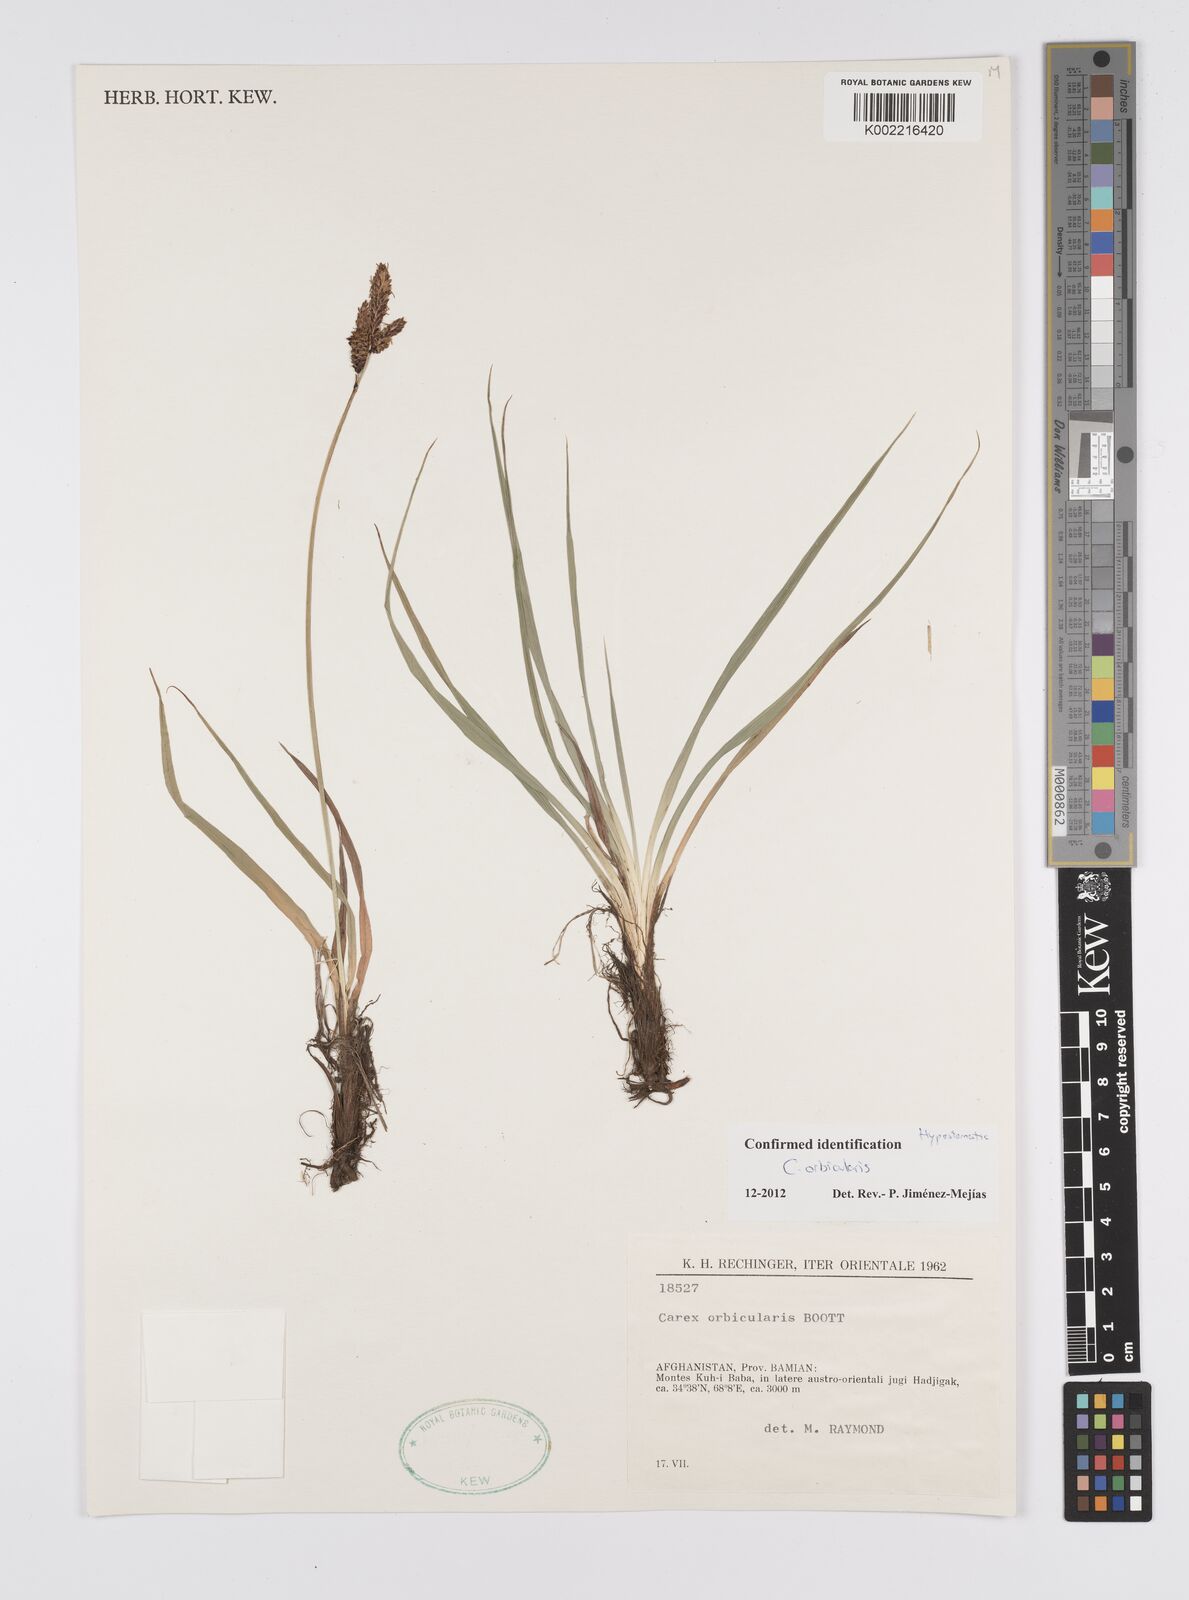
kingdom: Plantae
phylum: Tracheophyta
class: Liliopsida
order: Poales
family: Cyperaceae
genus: Carex
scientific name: Carex orbicularis
